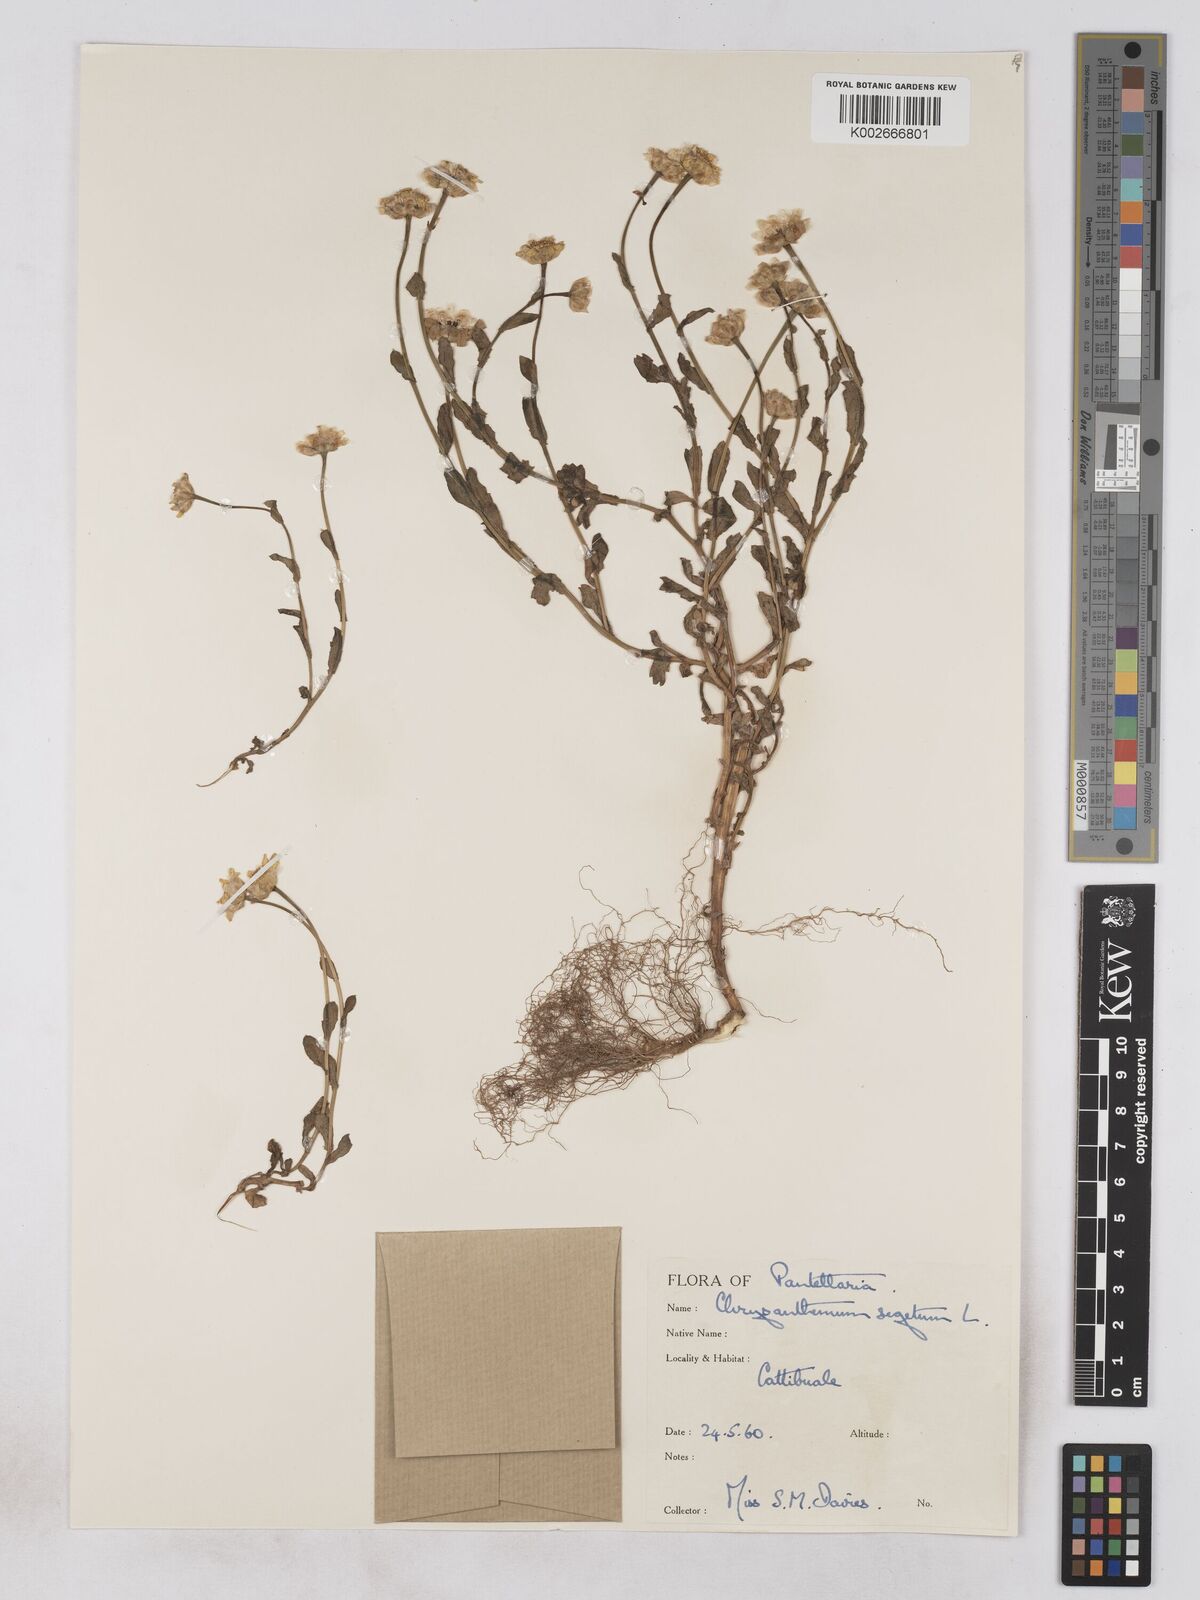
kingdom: Plantae
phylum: Tracheophyta
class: Magnoliopsida
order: Asterales
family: Asteraceae
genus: Glebionis
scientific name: Glebionis segetum
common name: Corndaisy
